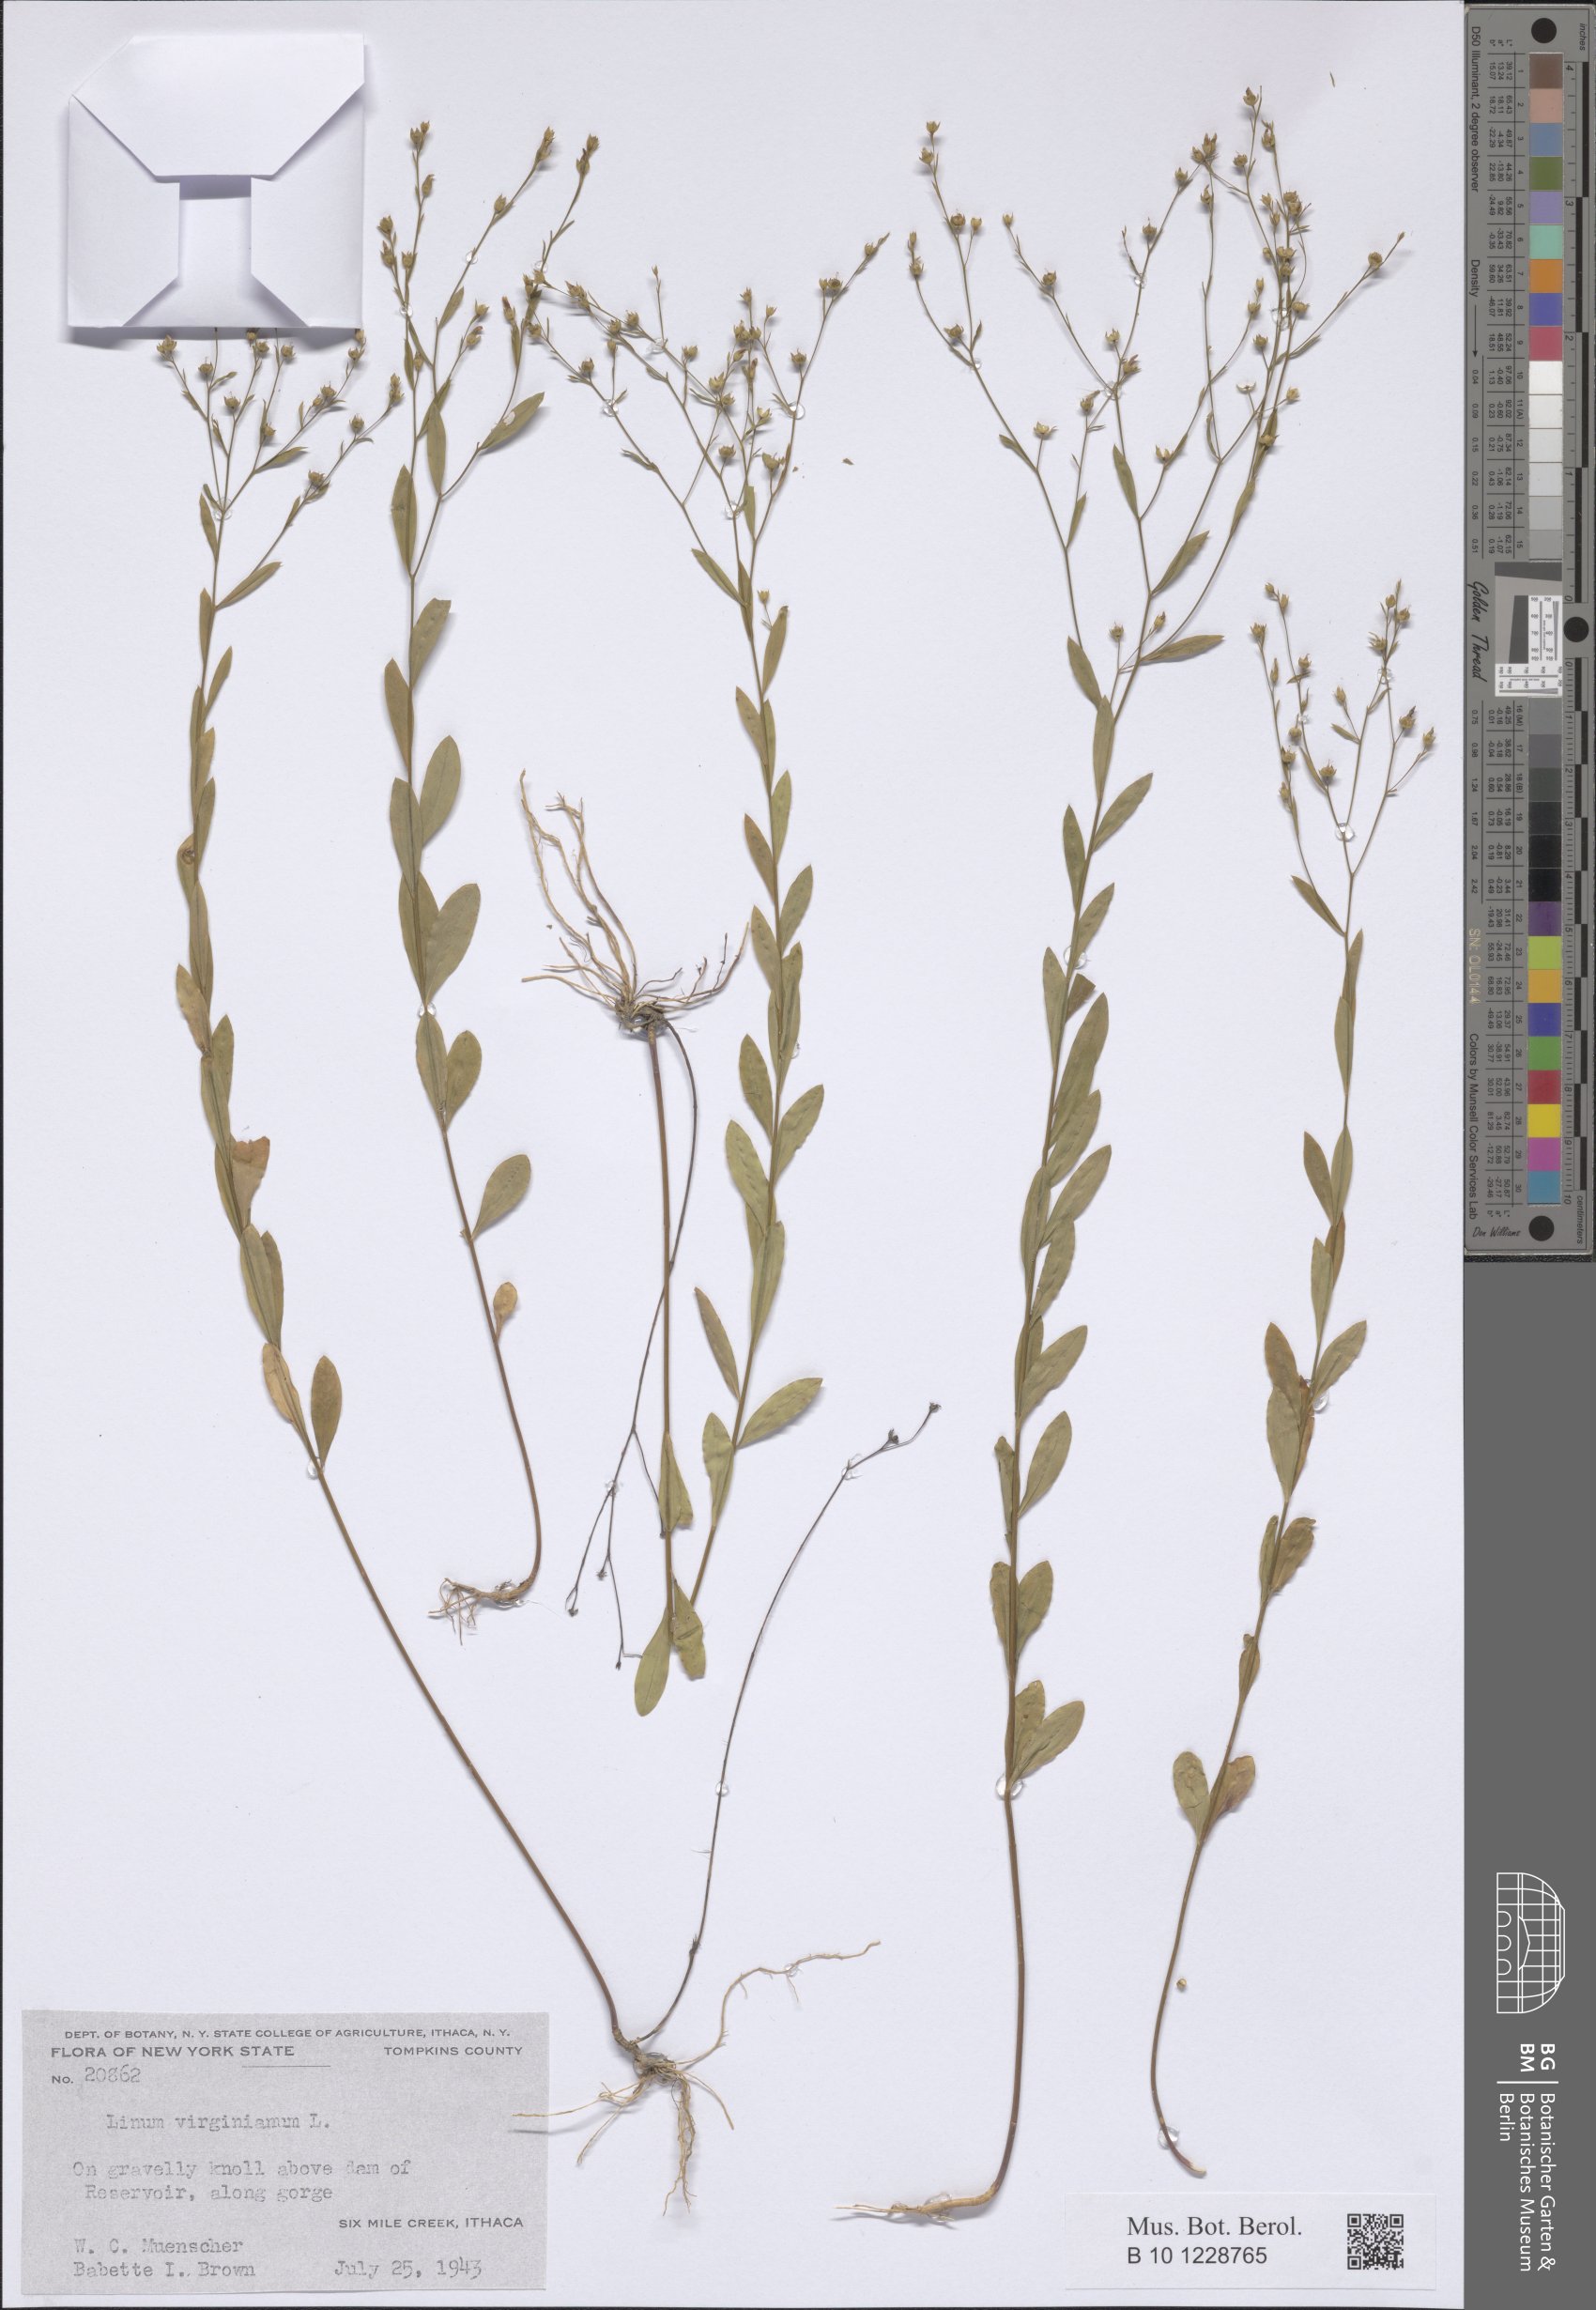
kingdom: Plantae
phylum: Tracheophyta
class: Magnoliopsida
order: Malpighiales
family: Linaceae
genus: Linum
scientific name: Linum virginianum
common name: Slender yellow flax
